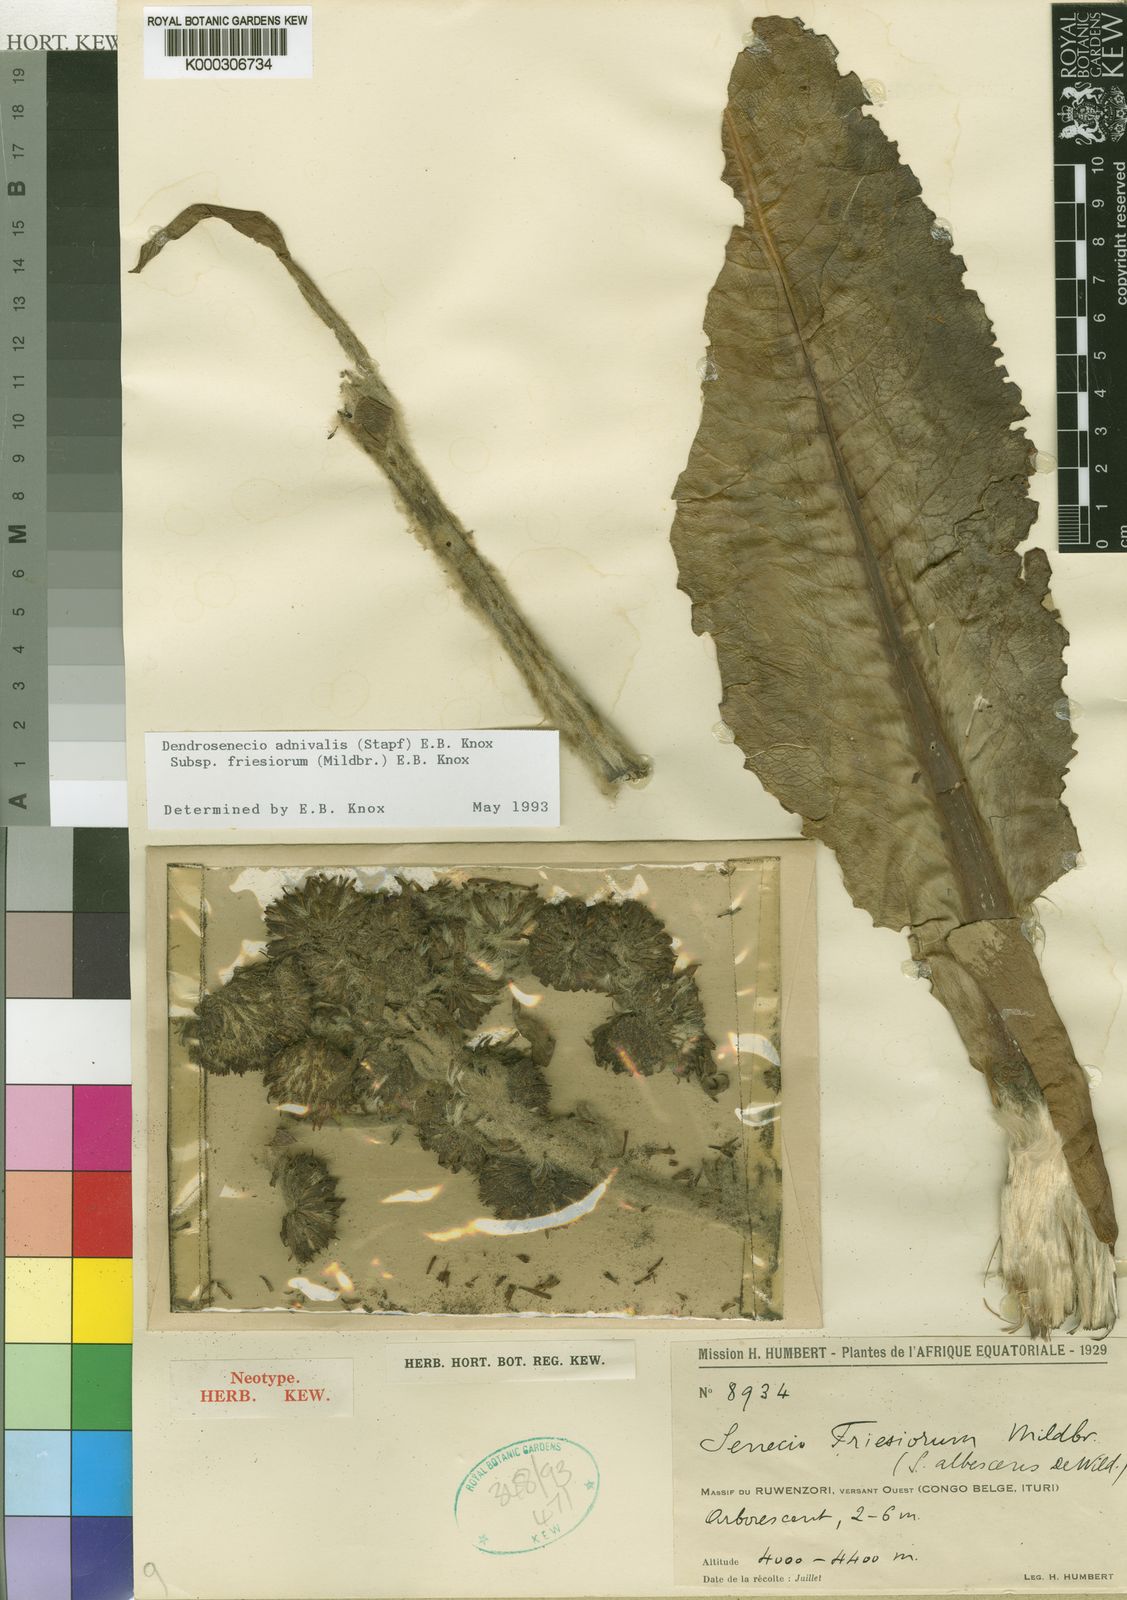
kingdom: Plantae
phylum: Tracheophyta
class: Magnoliopsida
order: Asterales
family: Asteraceae
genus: Dendrosenecio
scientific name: Dendrosenecio adnivalis
